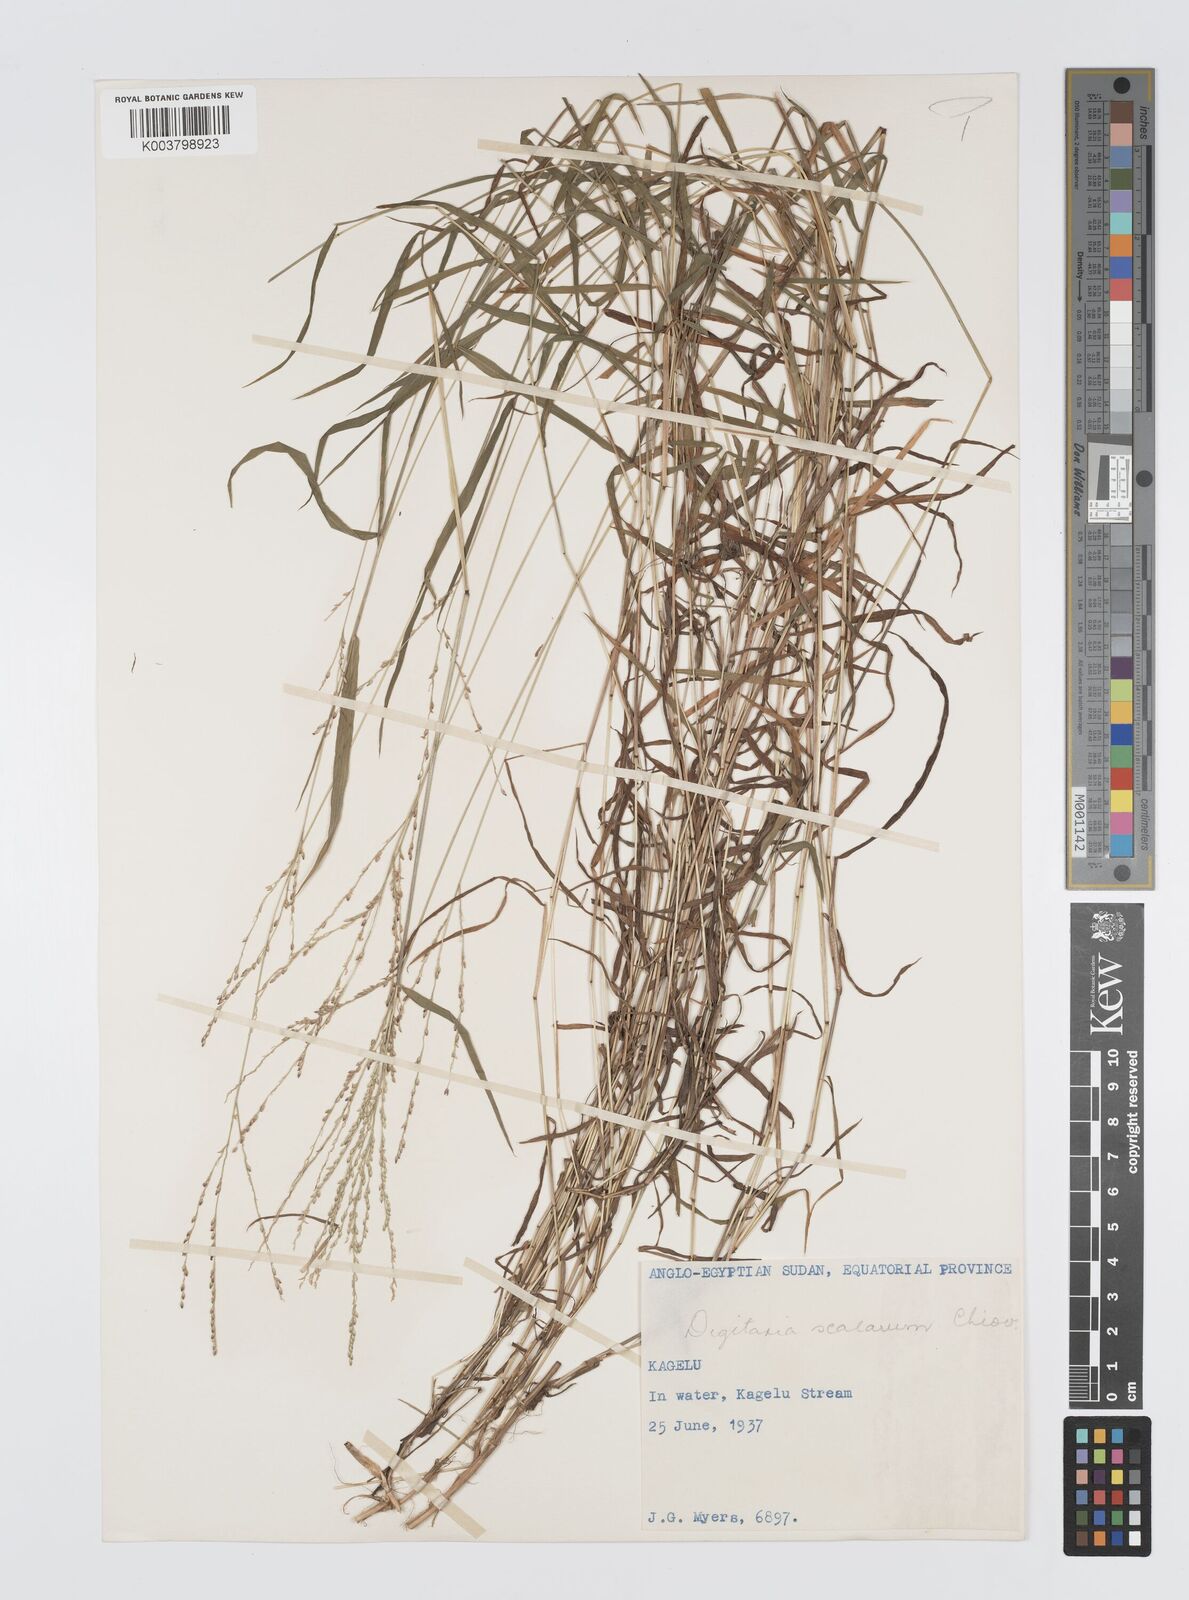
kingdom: Plantae
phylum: Tracheophyta
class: Liliopsida
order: Poales
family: Poaceae
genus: Digitaria
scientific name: Digitaria abyssinica
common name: African couchgrass
